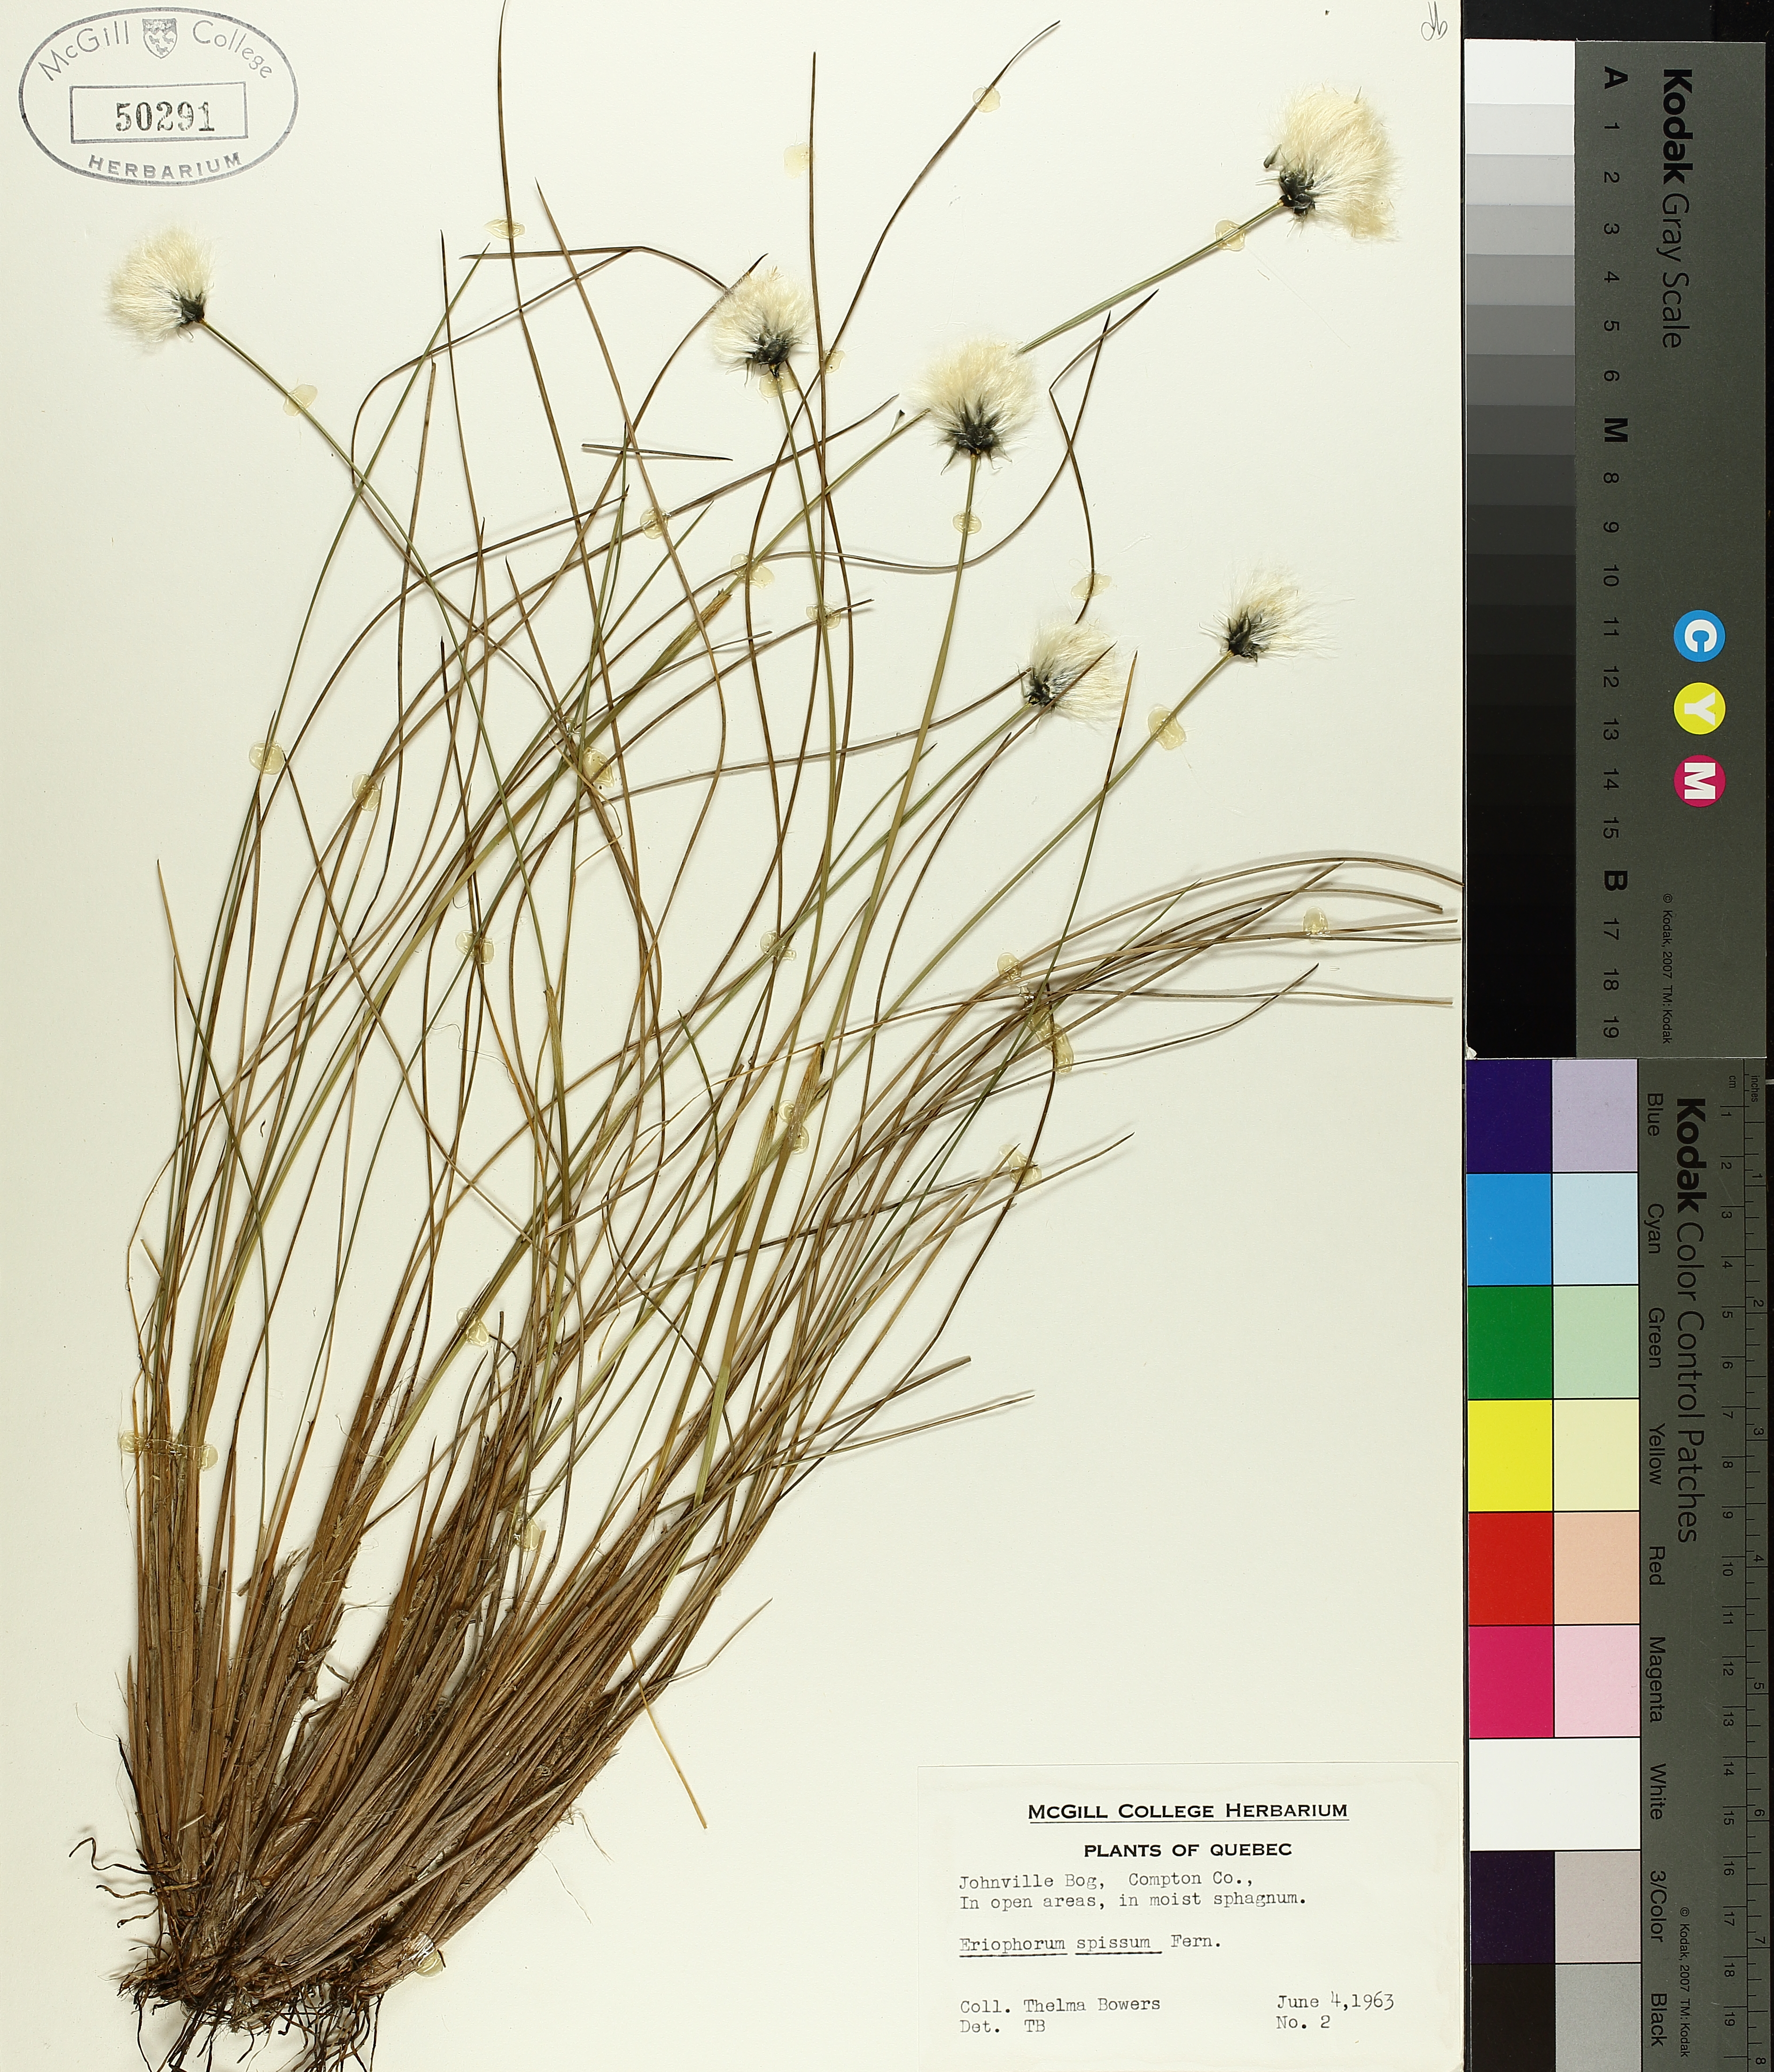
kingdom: Plantae
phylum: Tracheophyta
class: Liliopsida
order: Poales
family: Cyperaceae
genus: Eriophorum
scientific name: Eriophorum vaginatum
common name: Hare's-tail cottongrass
